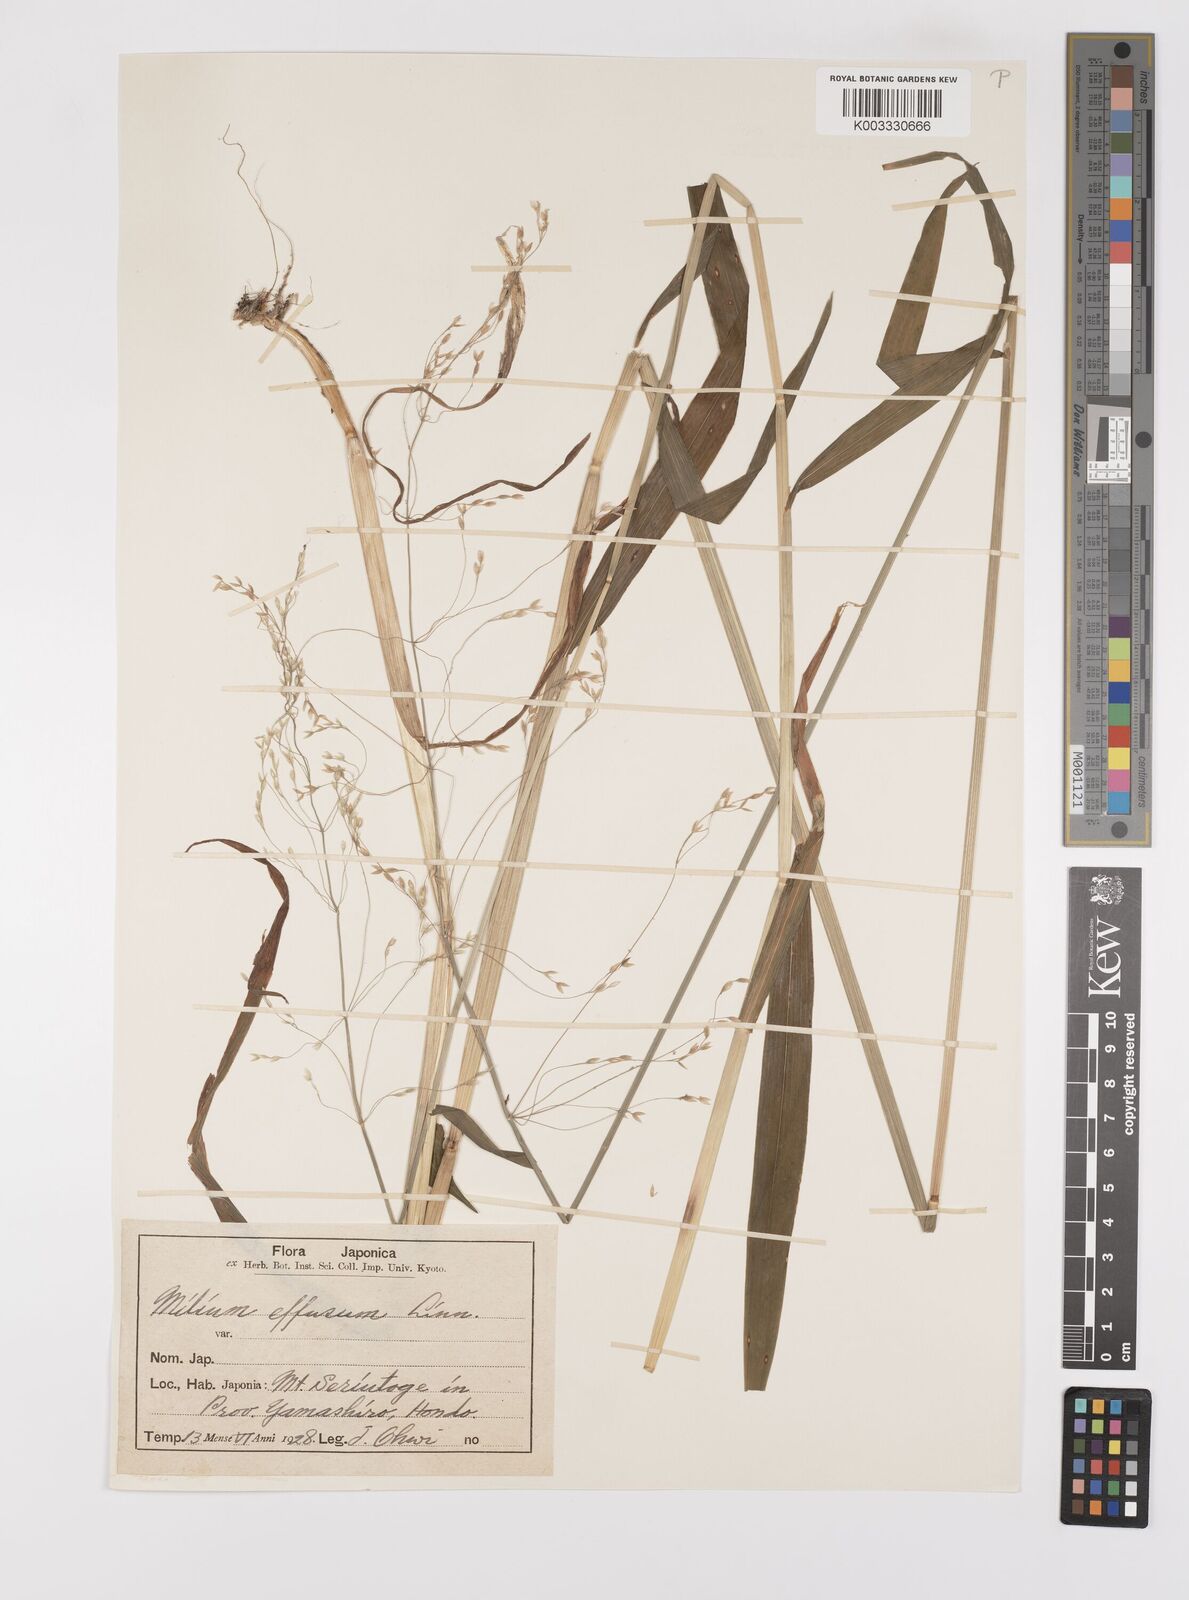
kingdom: Plantae
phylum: Tracheophyta
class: Liliopsida
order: Poales
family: Poaceae
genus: Milium
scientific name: Milium effusum
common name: Wood millet
